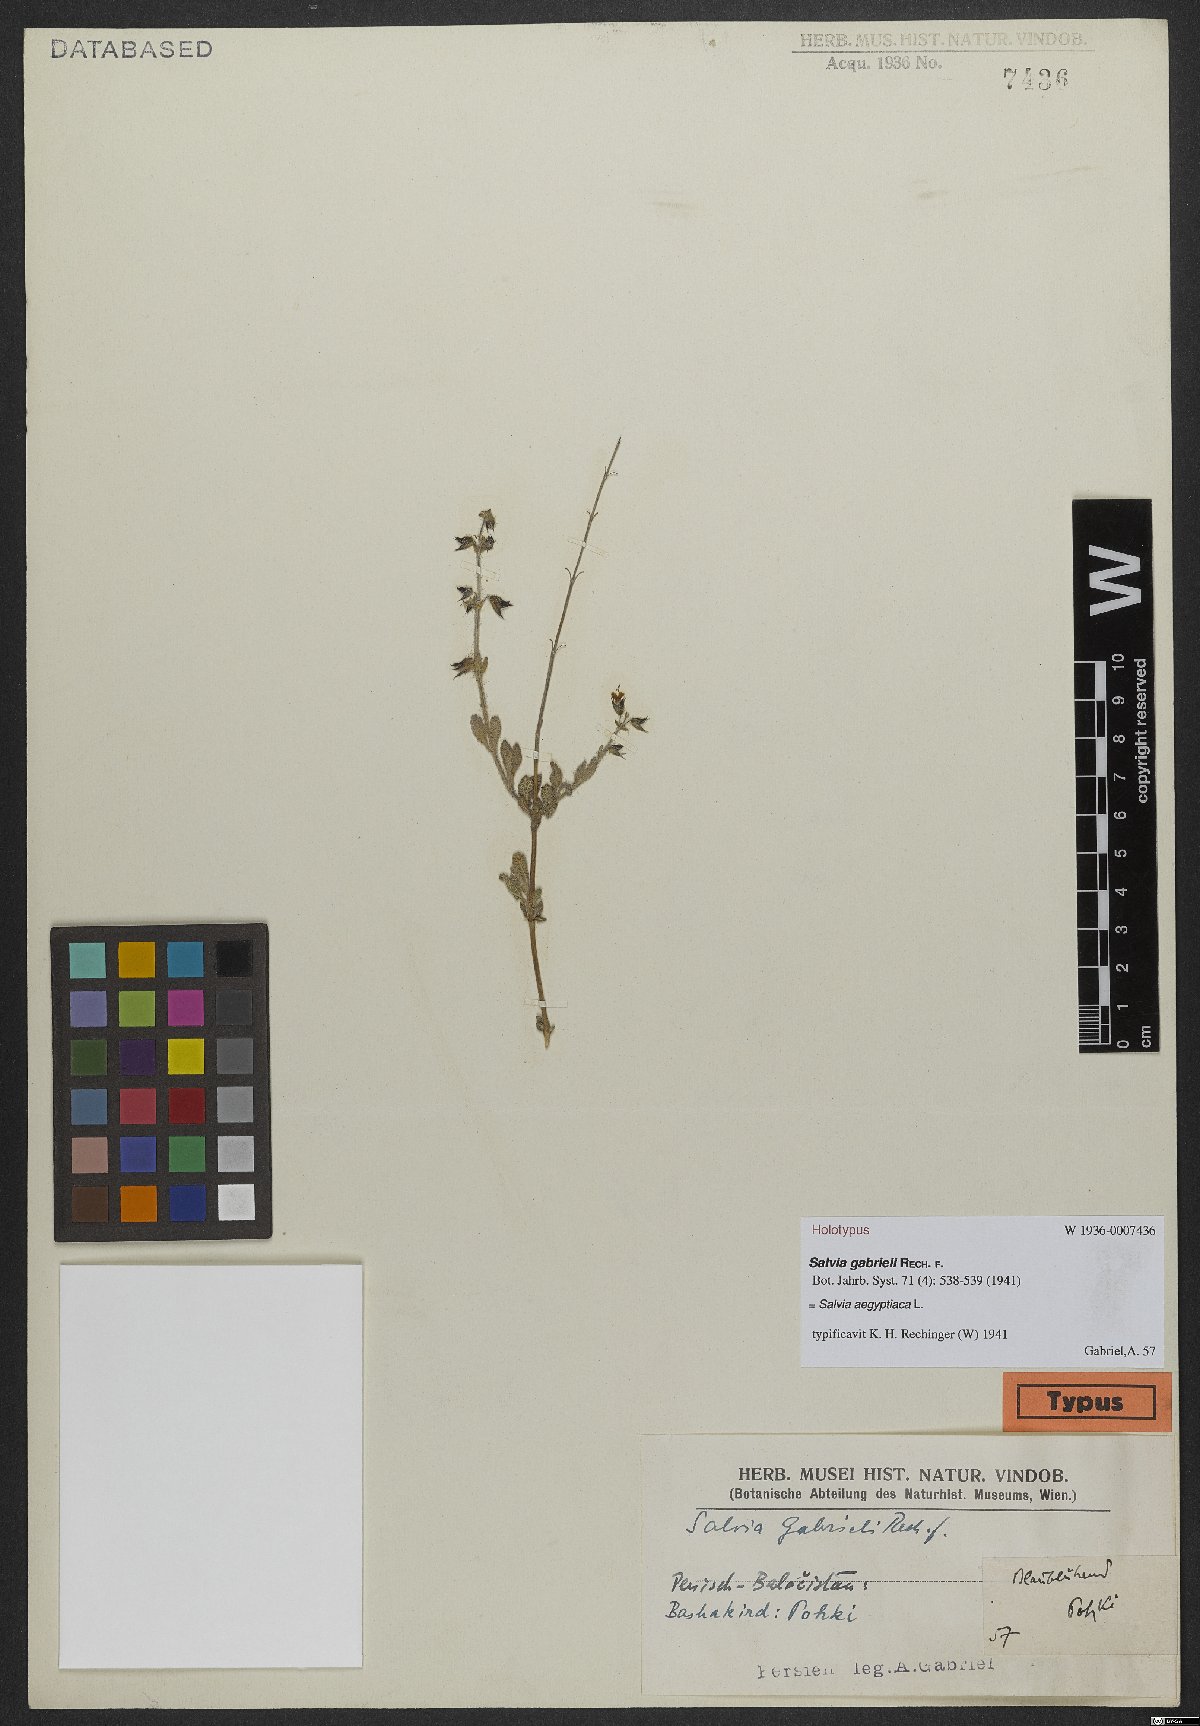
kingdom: Plantae
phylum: Tracheophyta
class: Magnoliopsida
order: Lamiales
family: Lamiaceae
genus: Salvia
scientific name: Salvia aegyptiaca
